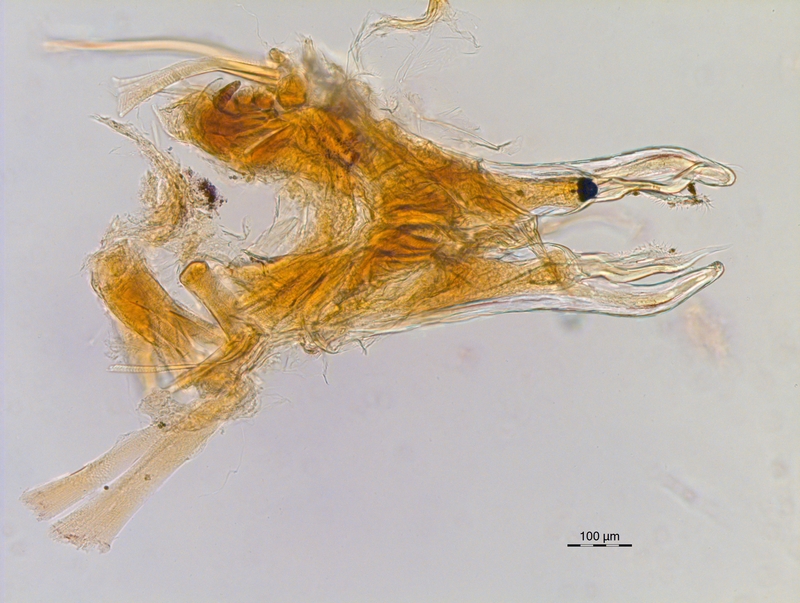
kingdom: Animalia
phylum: Arthropoda
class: Diplopoda
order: Chordeumatida
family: Chordeumatidae
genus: Melogona
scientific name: Melogona broelemanni
